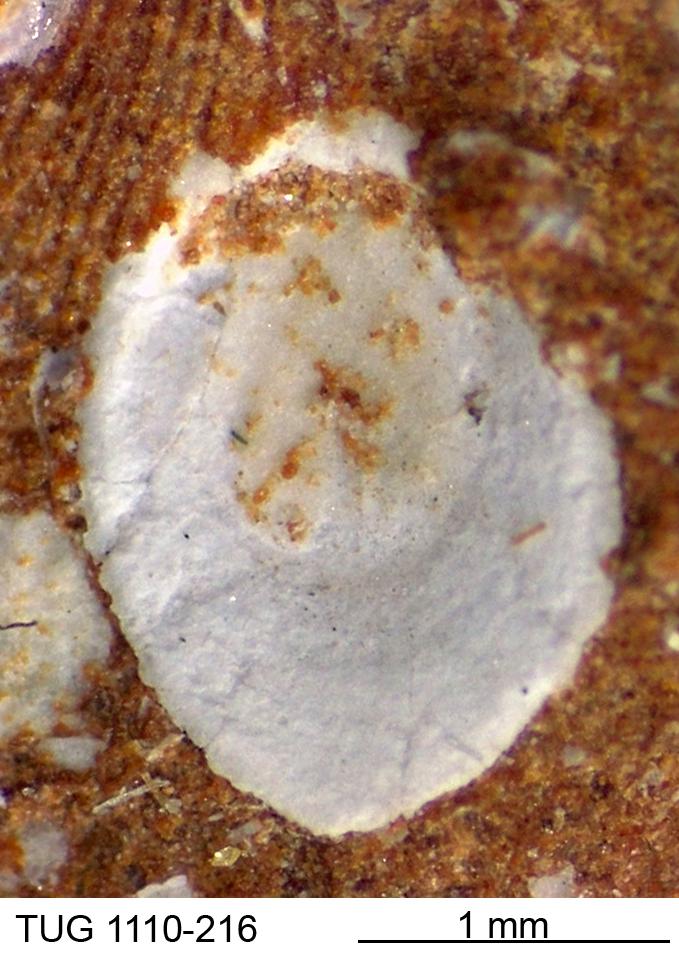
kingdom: Animalia
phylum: Brachiopoda
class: Craniata
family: Craniopsidae
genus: Pseudopholidops
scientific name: Pseudopholidops
